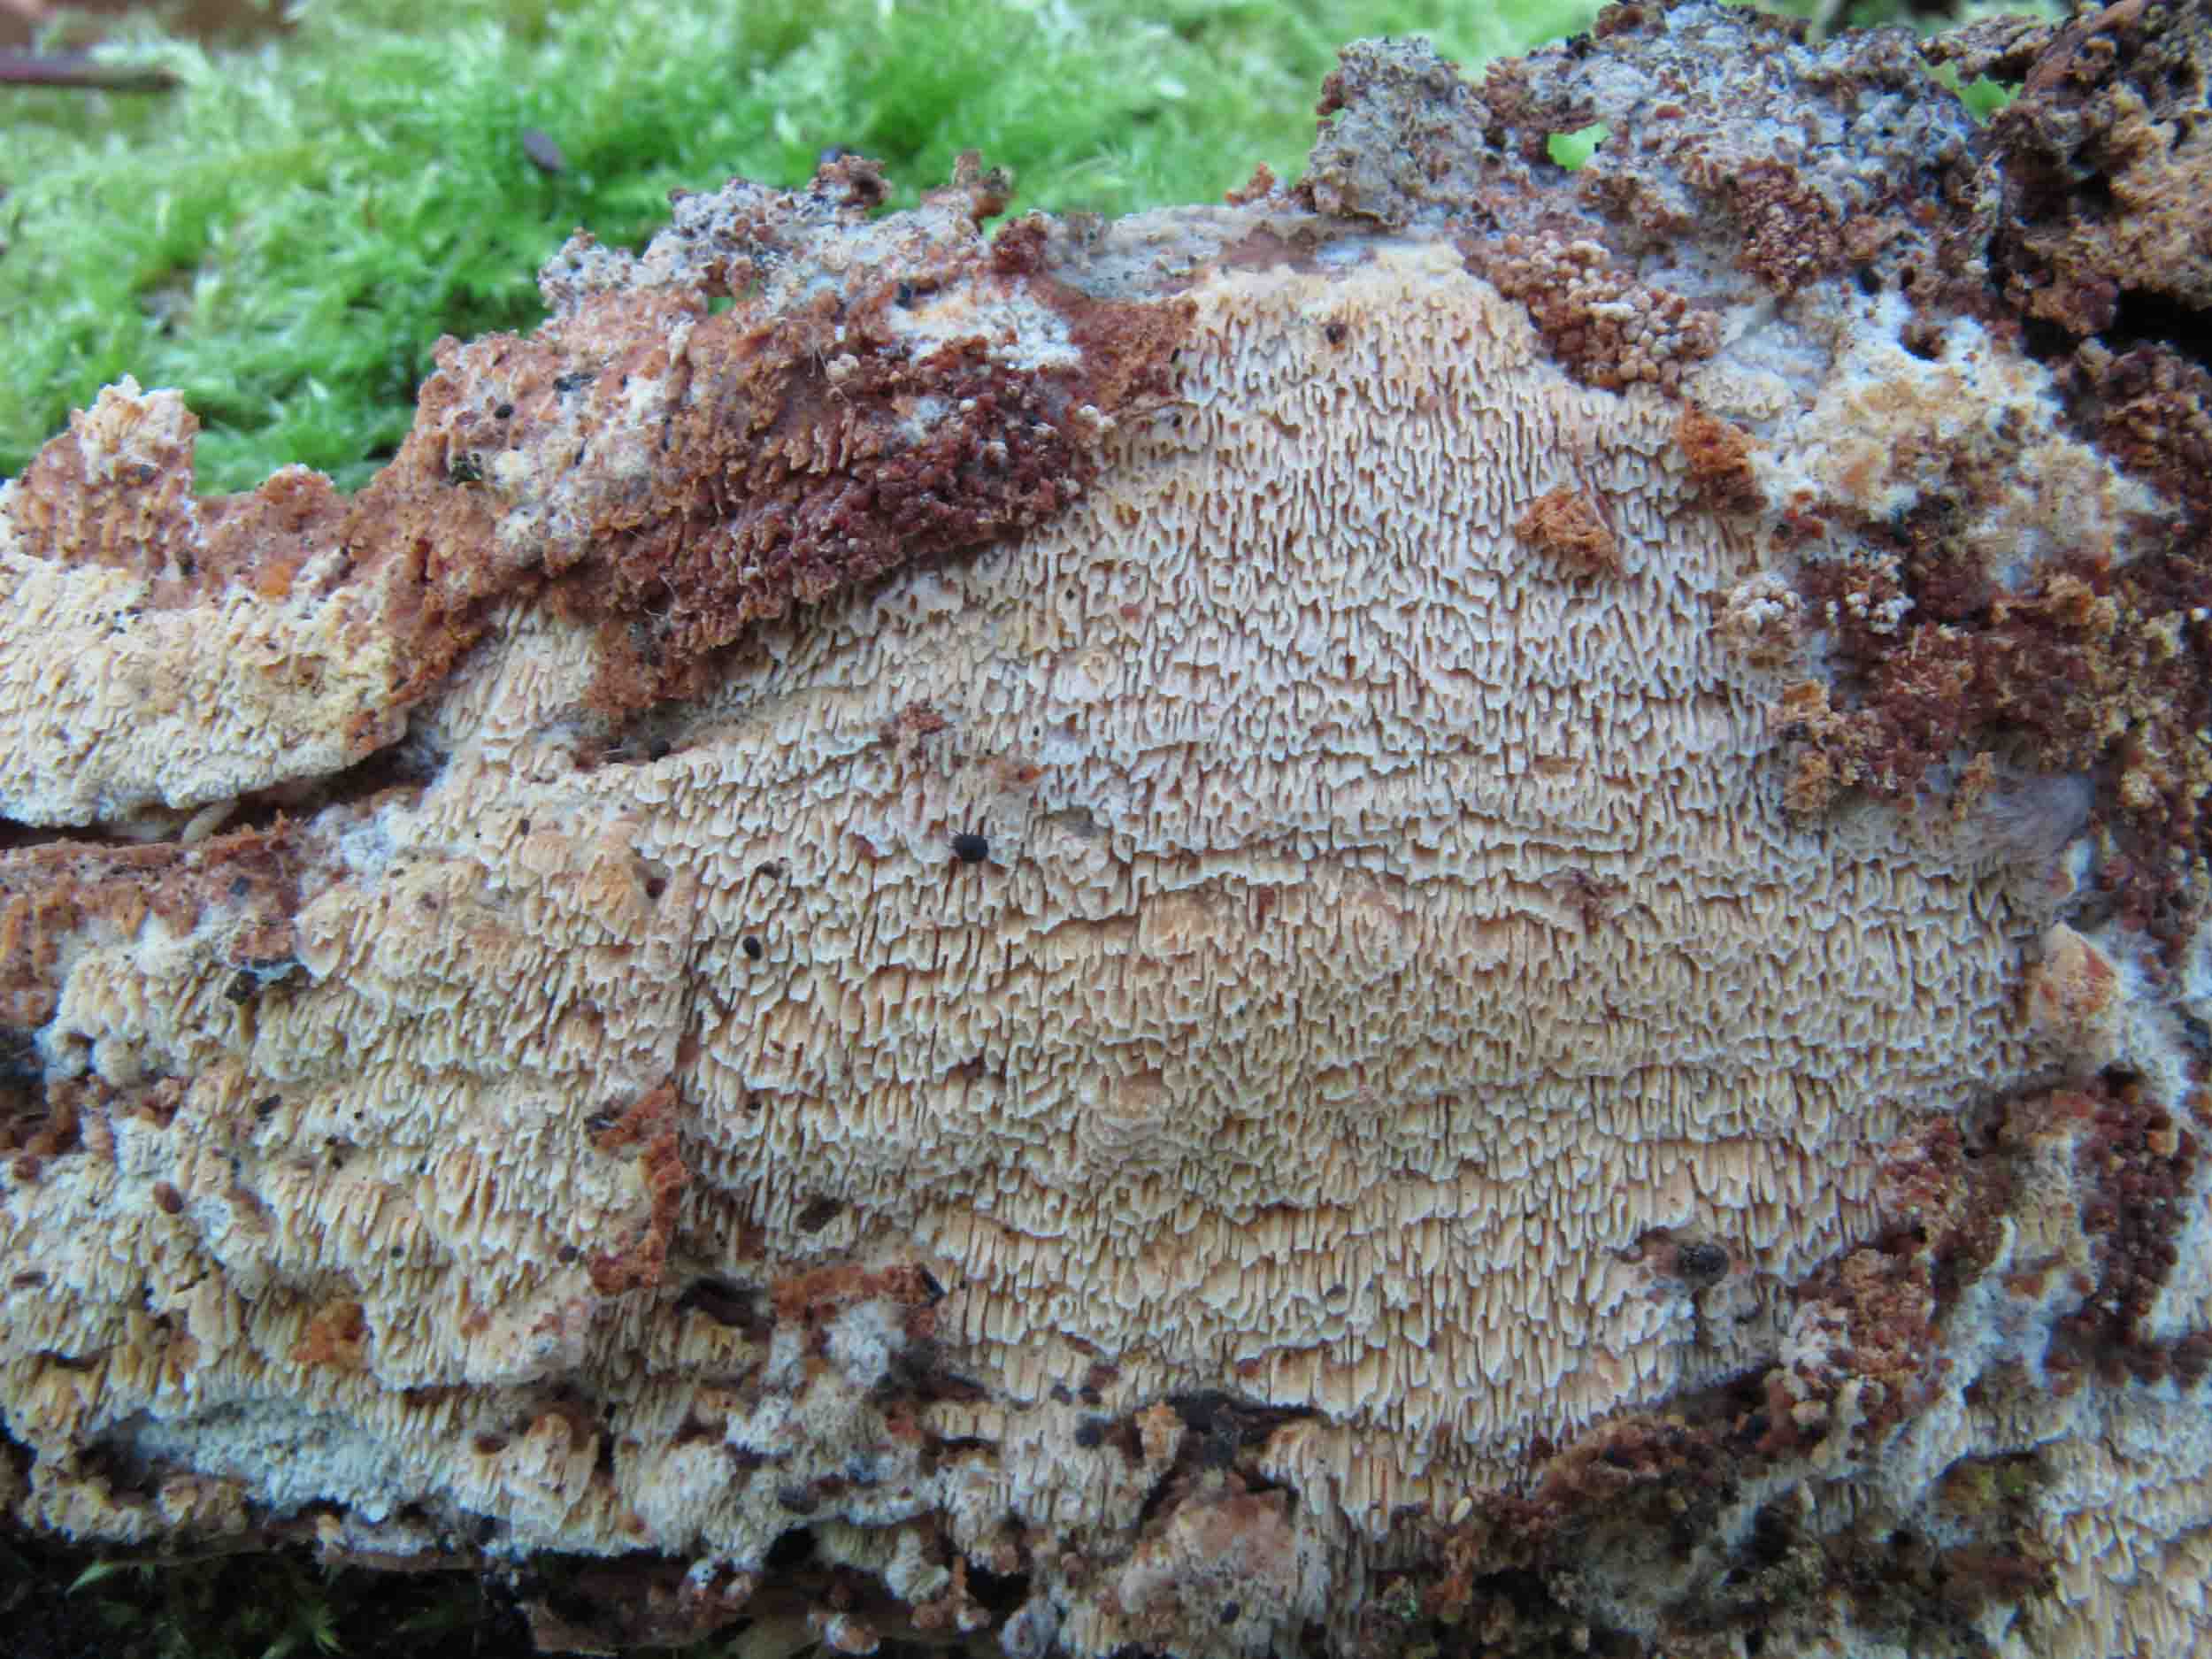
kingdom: Fungi
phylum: Basidiomycota
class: Agaricomycetes
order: Hymenochaetales
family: Schizoporaceae
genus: Schizopora
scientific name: Schizopora paradoxa
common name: hvid tandsvamp
